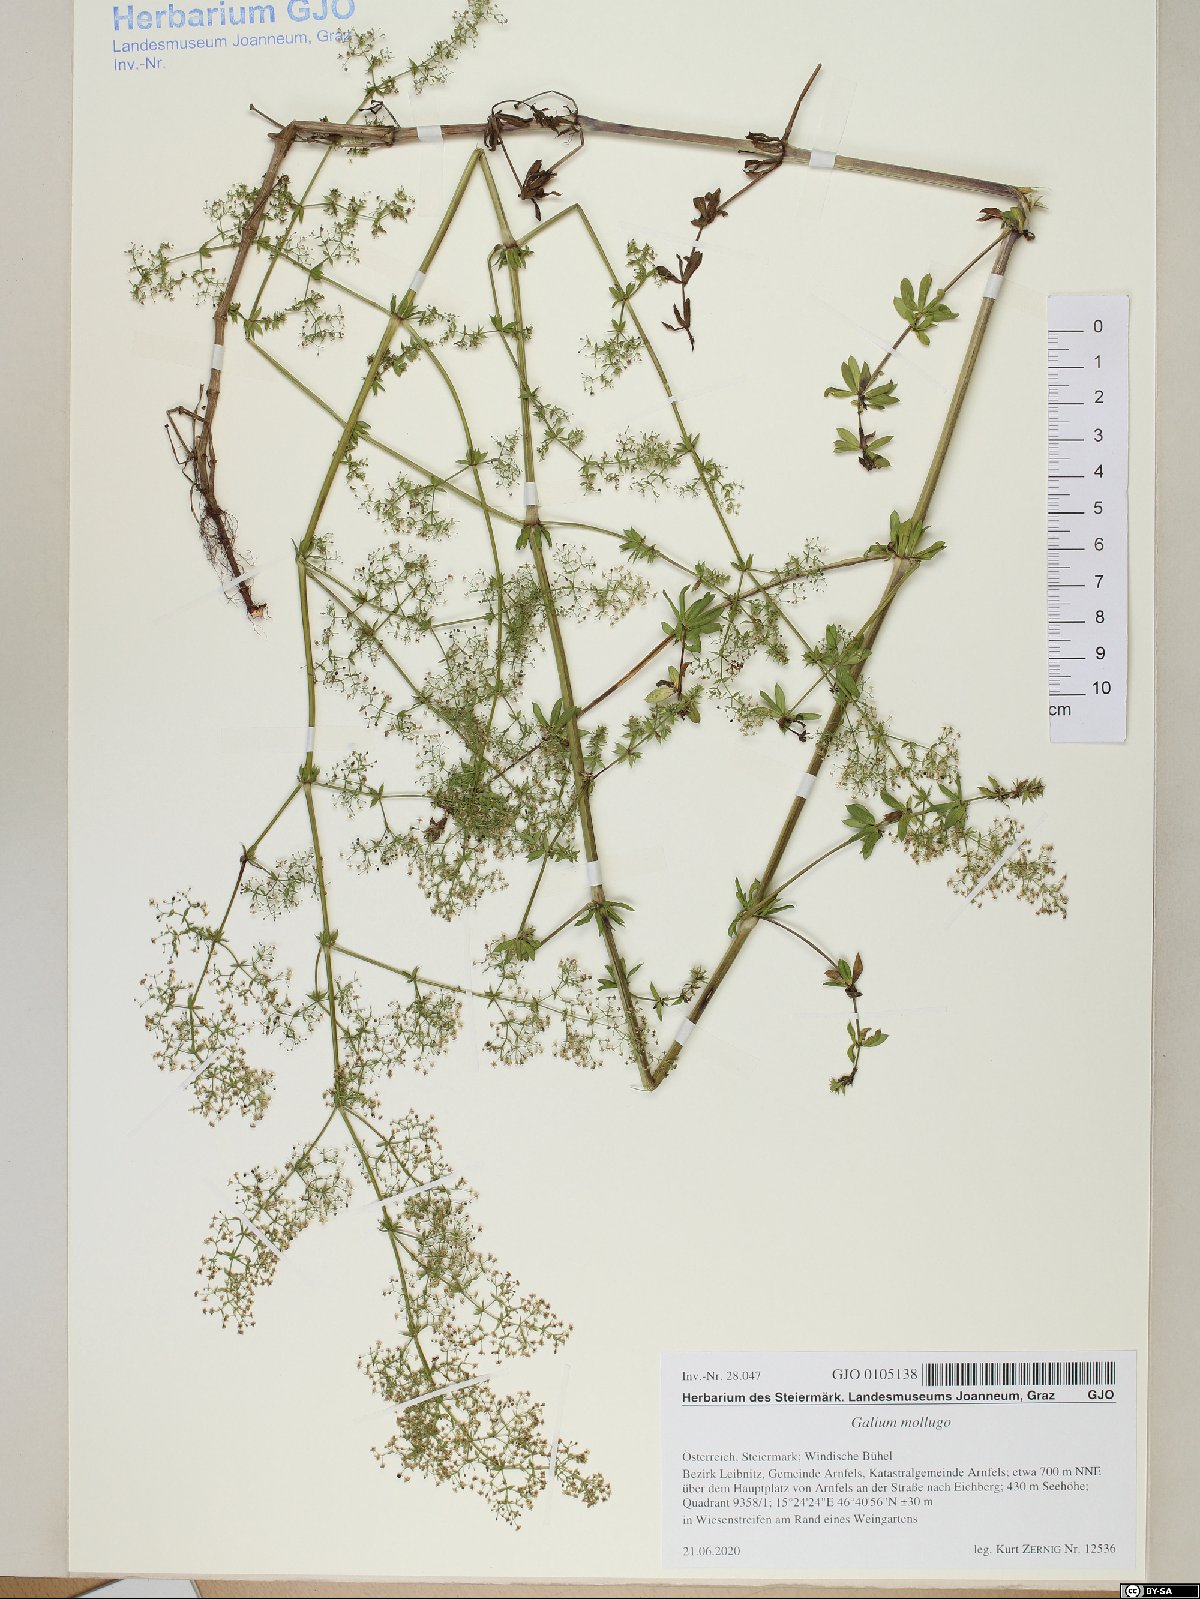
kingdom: Plantae
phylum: Tracheophyta
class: Magnoliopsida
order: Gentianales
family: Rubiaceae
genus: Galium
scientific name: Galium mollugo
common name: Hedge bedstraw
